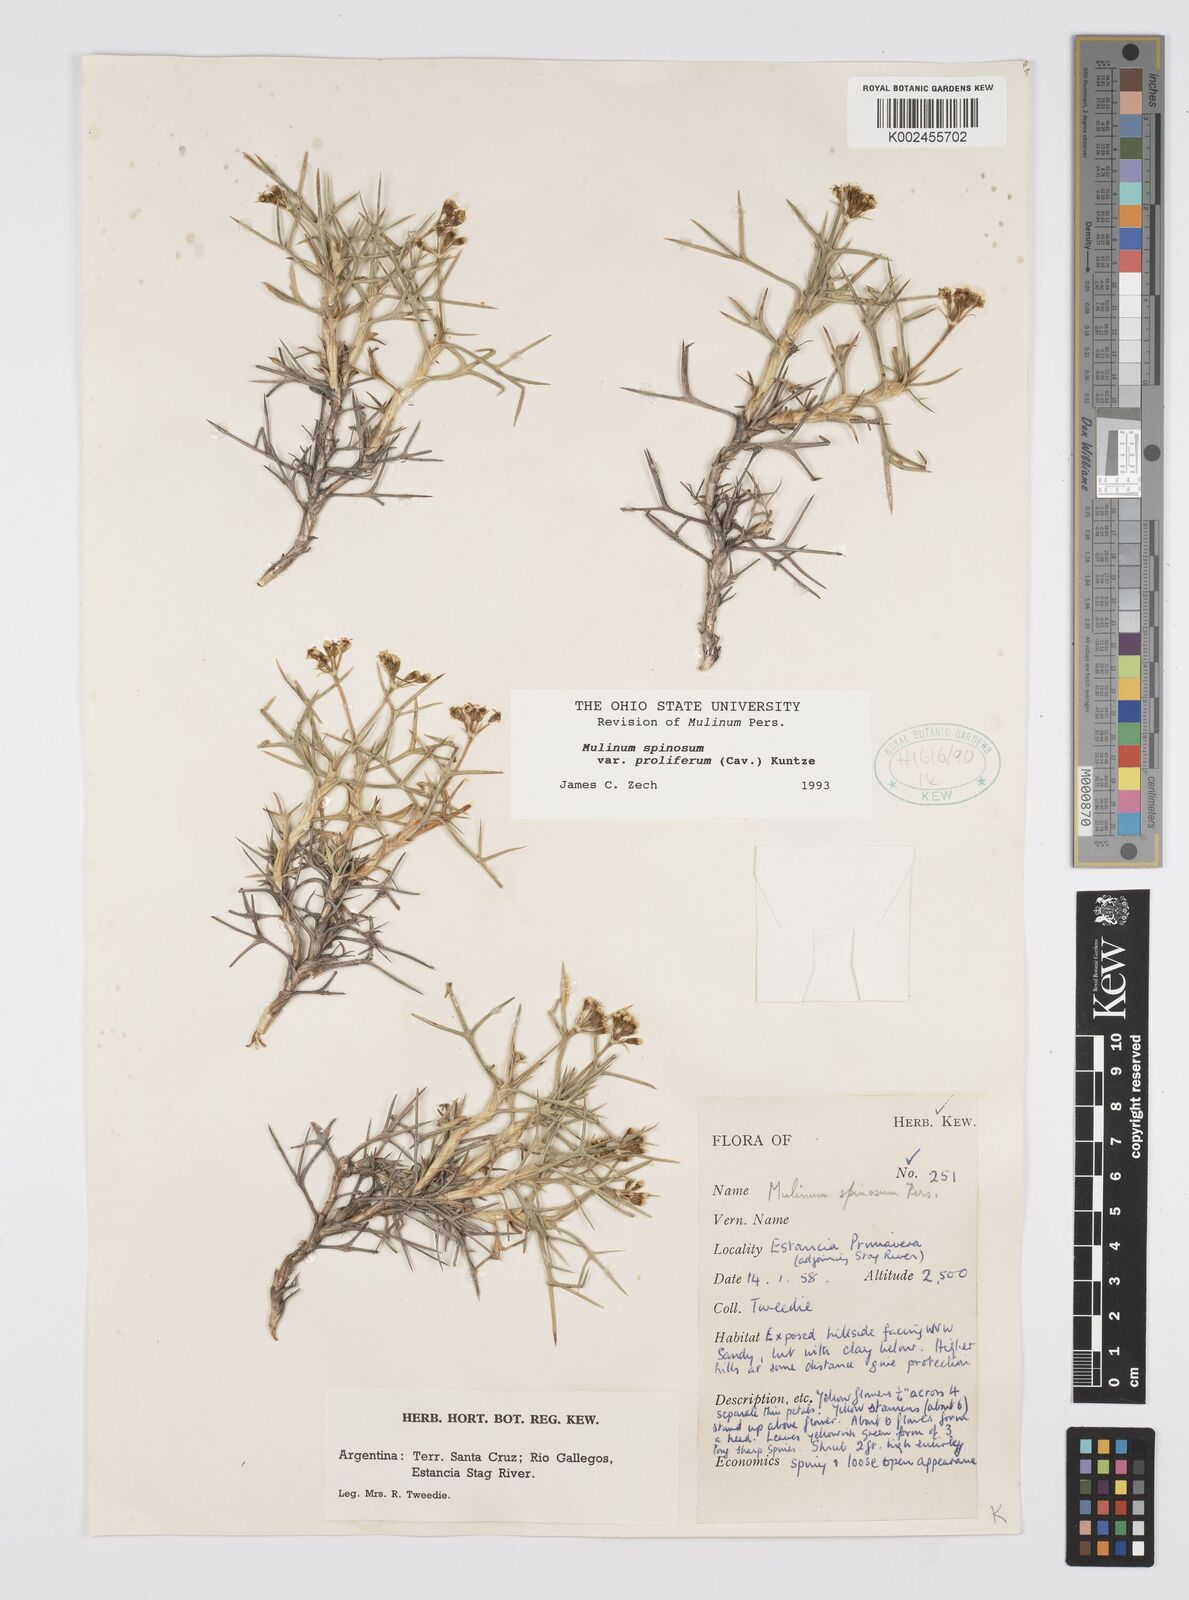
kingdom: Plantae
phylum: Tracheophyta
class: Magnoliopsida
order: Apiales
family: Apiaceae
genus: Azorella
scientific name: Azorella prolifera
